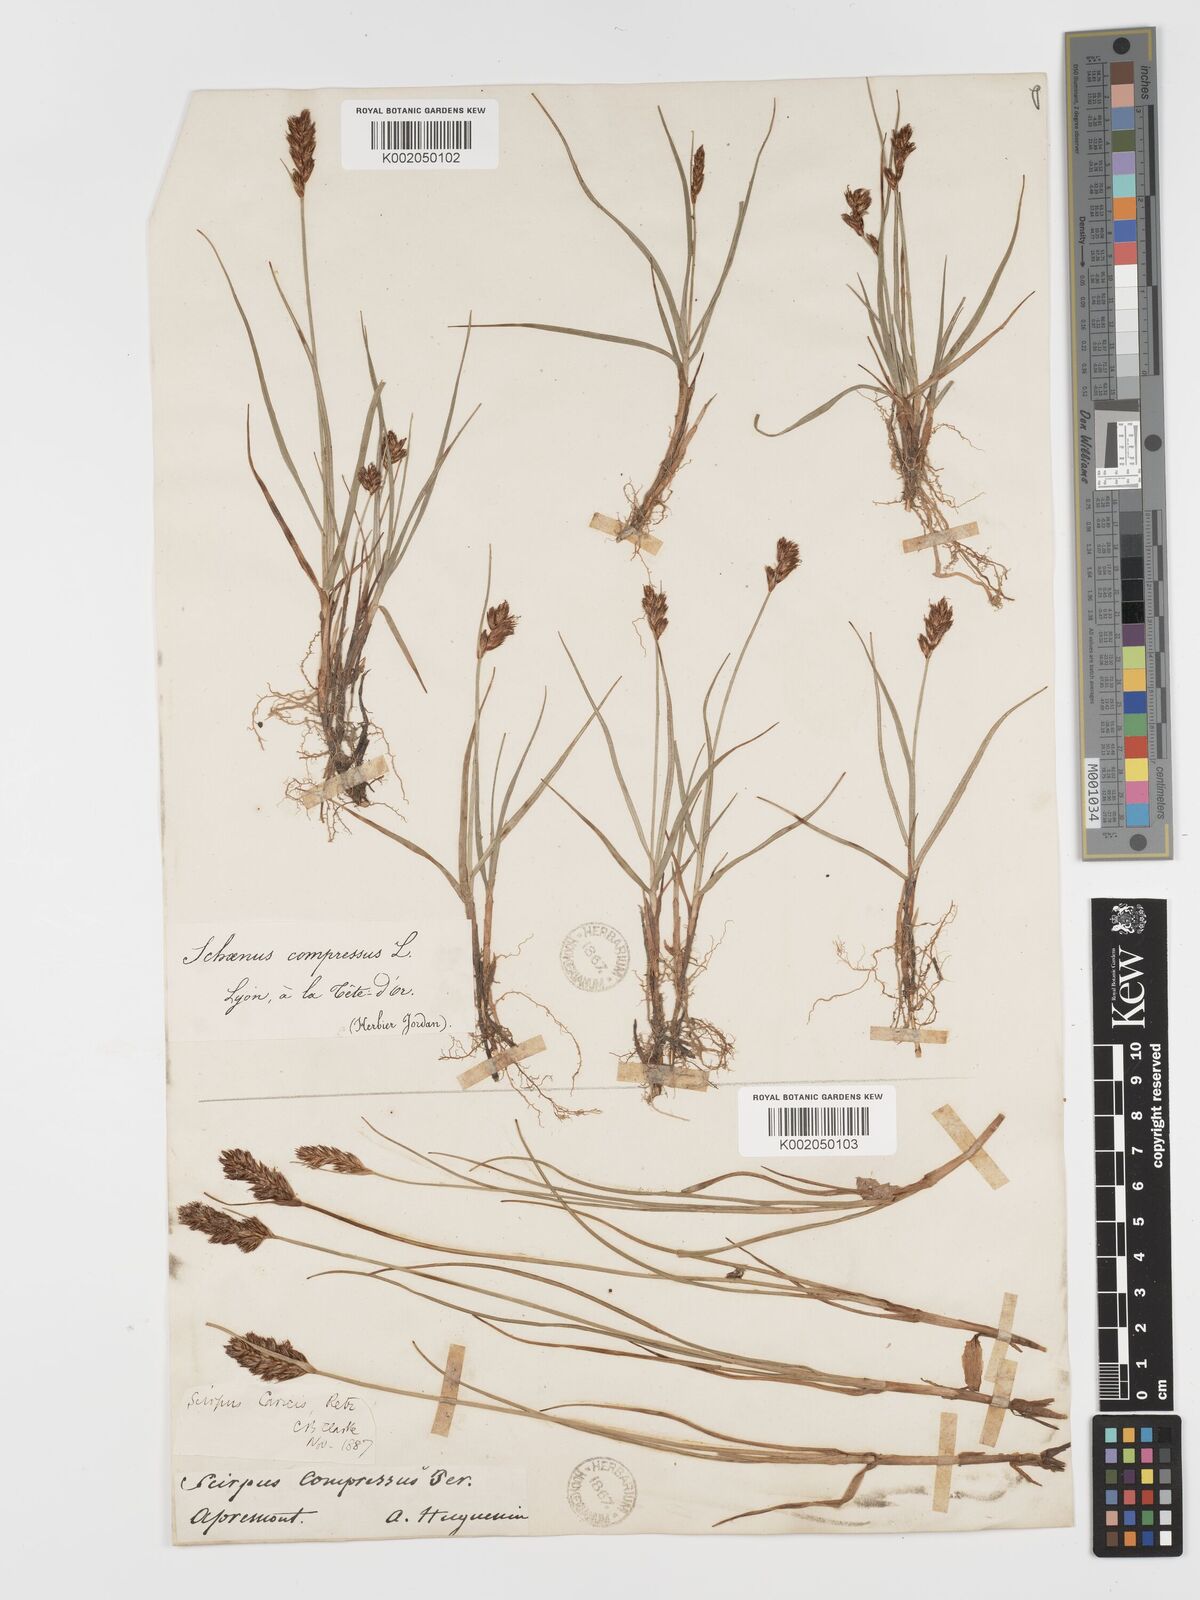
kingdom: Plantae
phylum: Tracheophyta
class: Liliopsida
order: Poales
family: Cyperaceae
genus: Blysmus
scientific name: Blysmus compressus
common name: Flat-sedge
